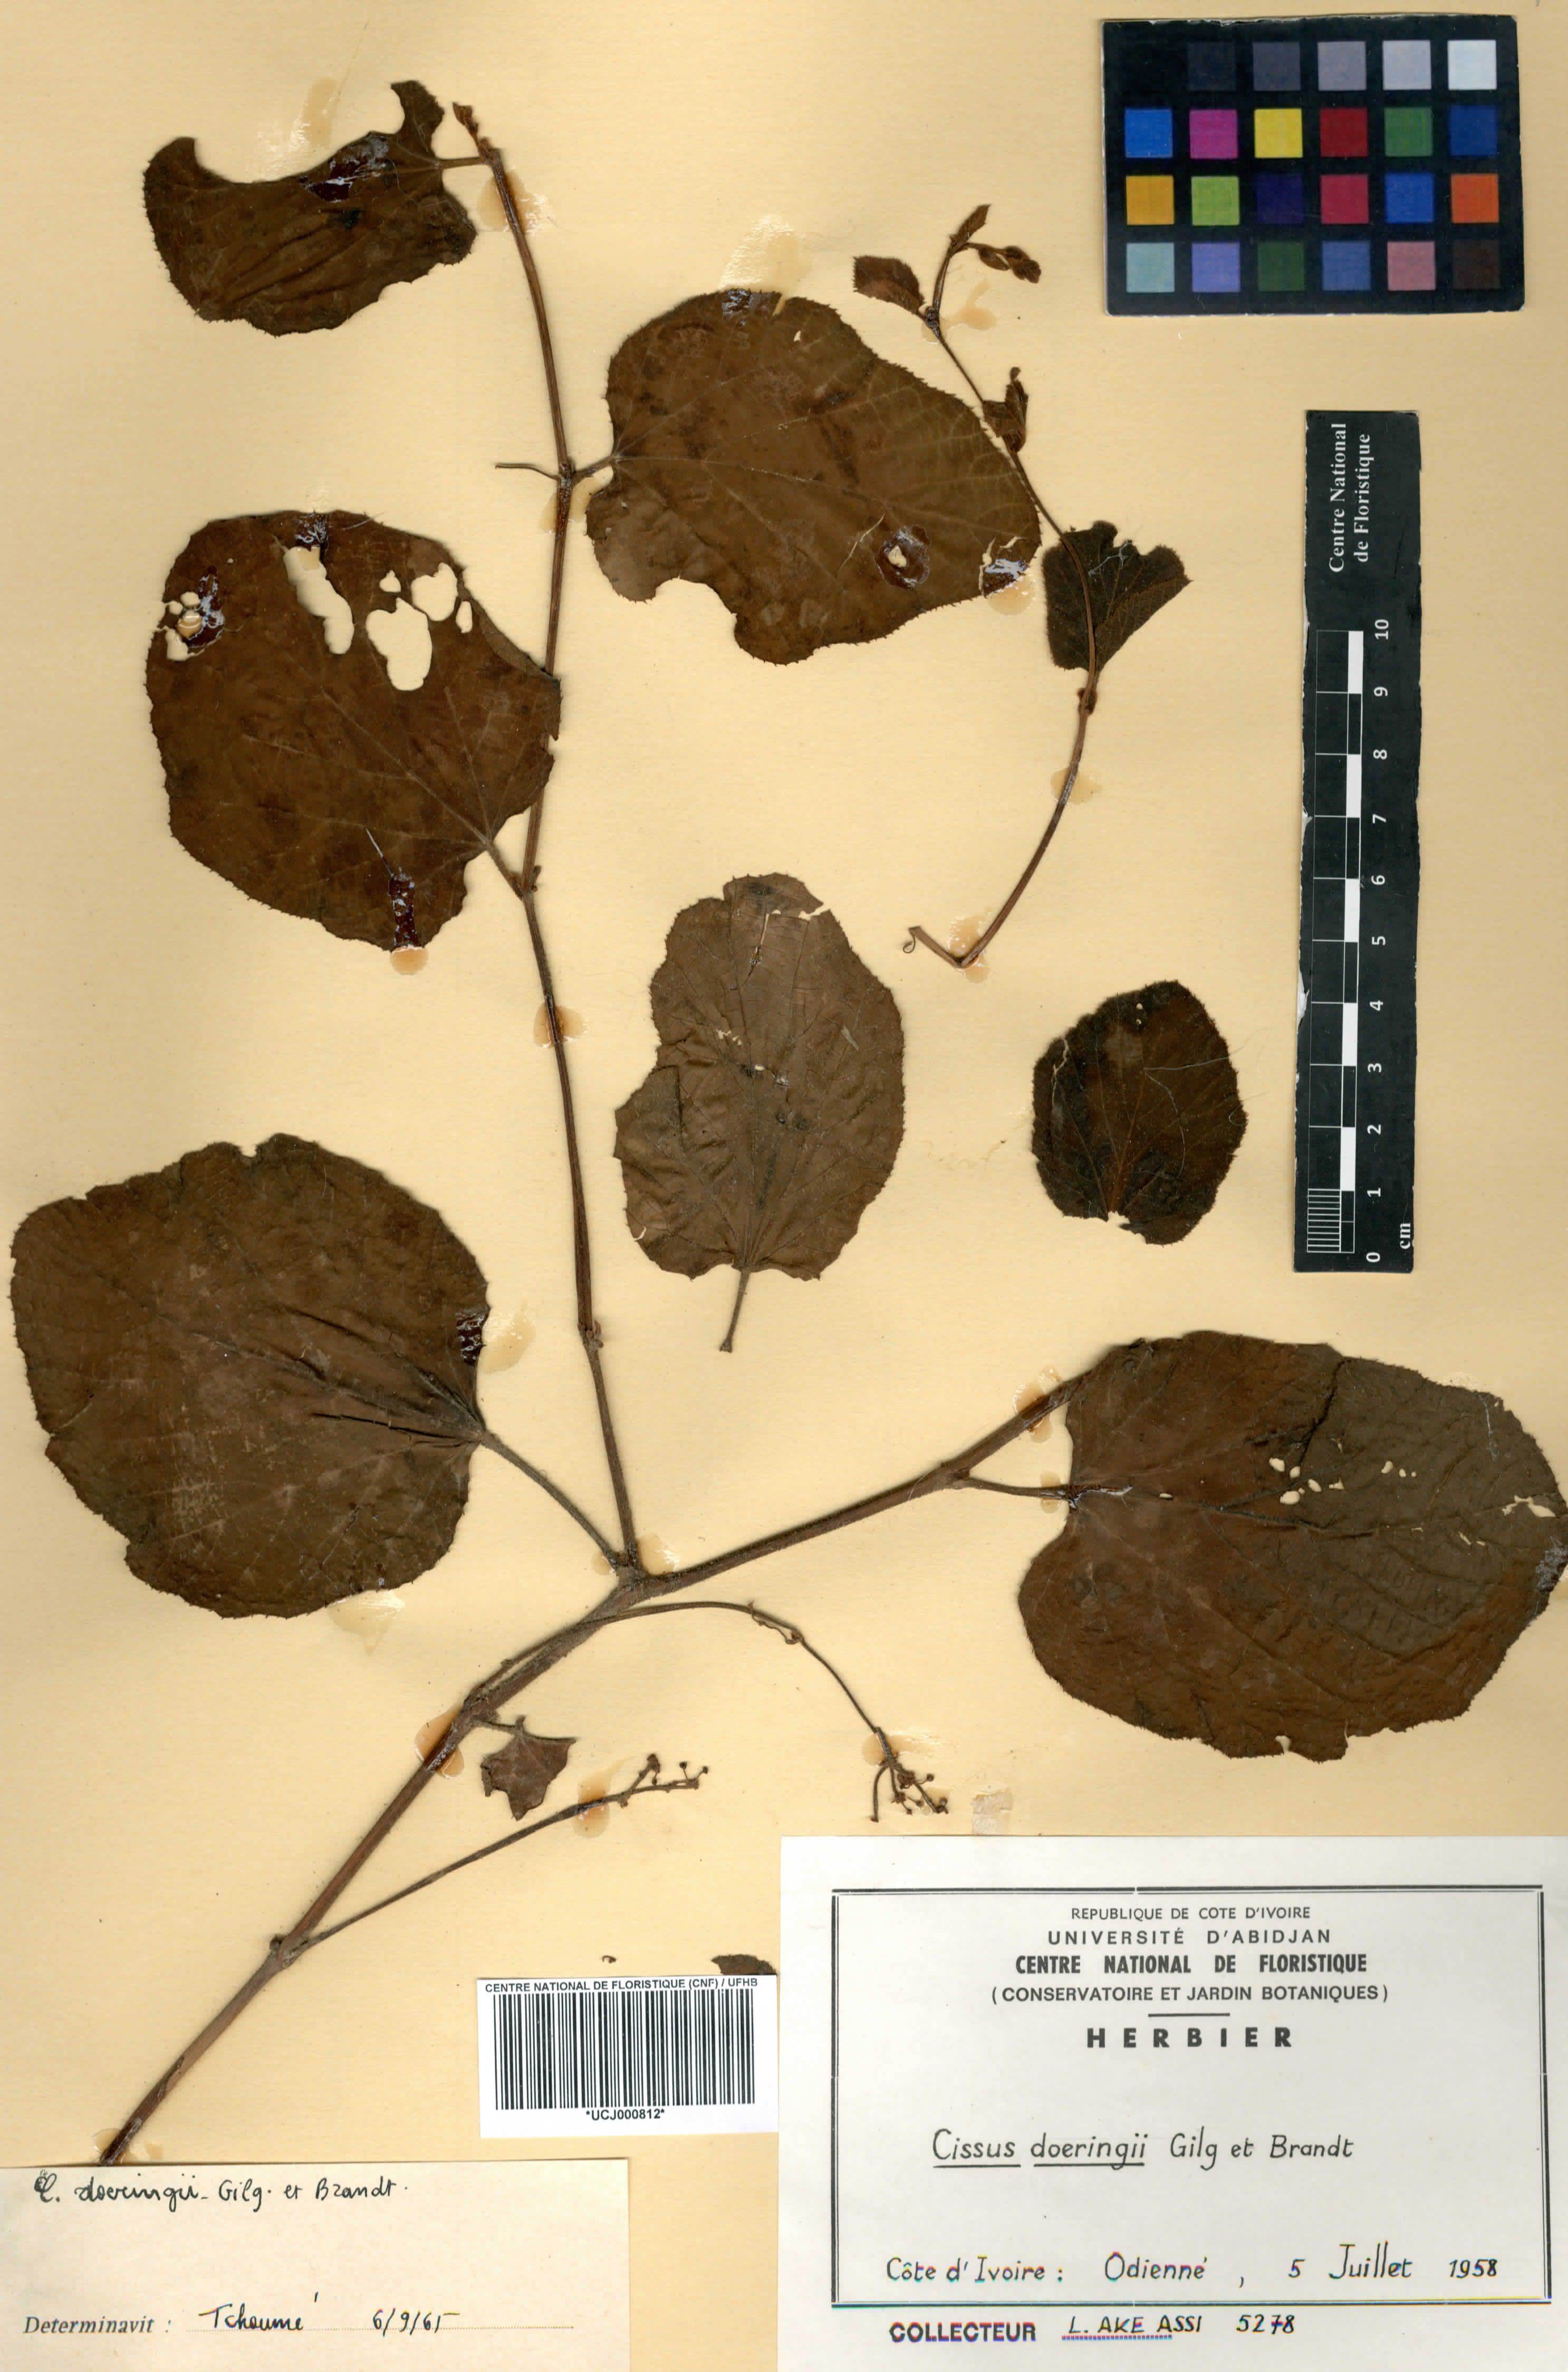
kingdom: Plantae
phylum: Tracheophyta
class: Magnoliopsida
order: Vitales
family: Vitaceae
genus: Cissus
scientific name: Cissus doeringii
